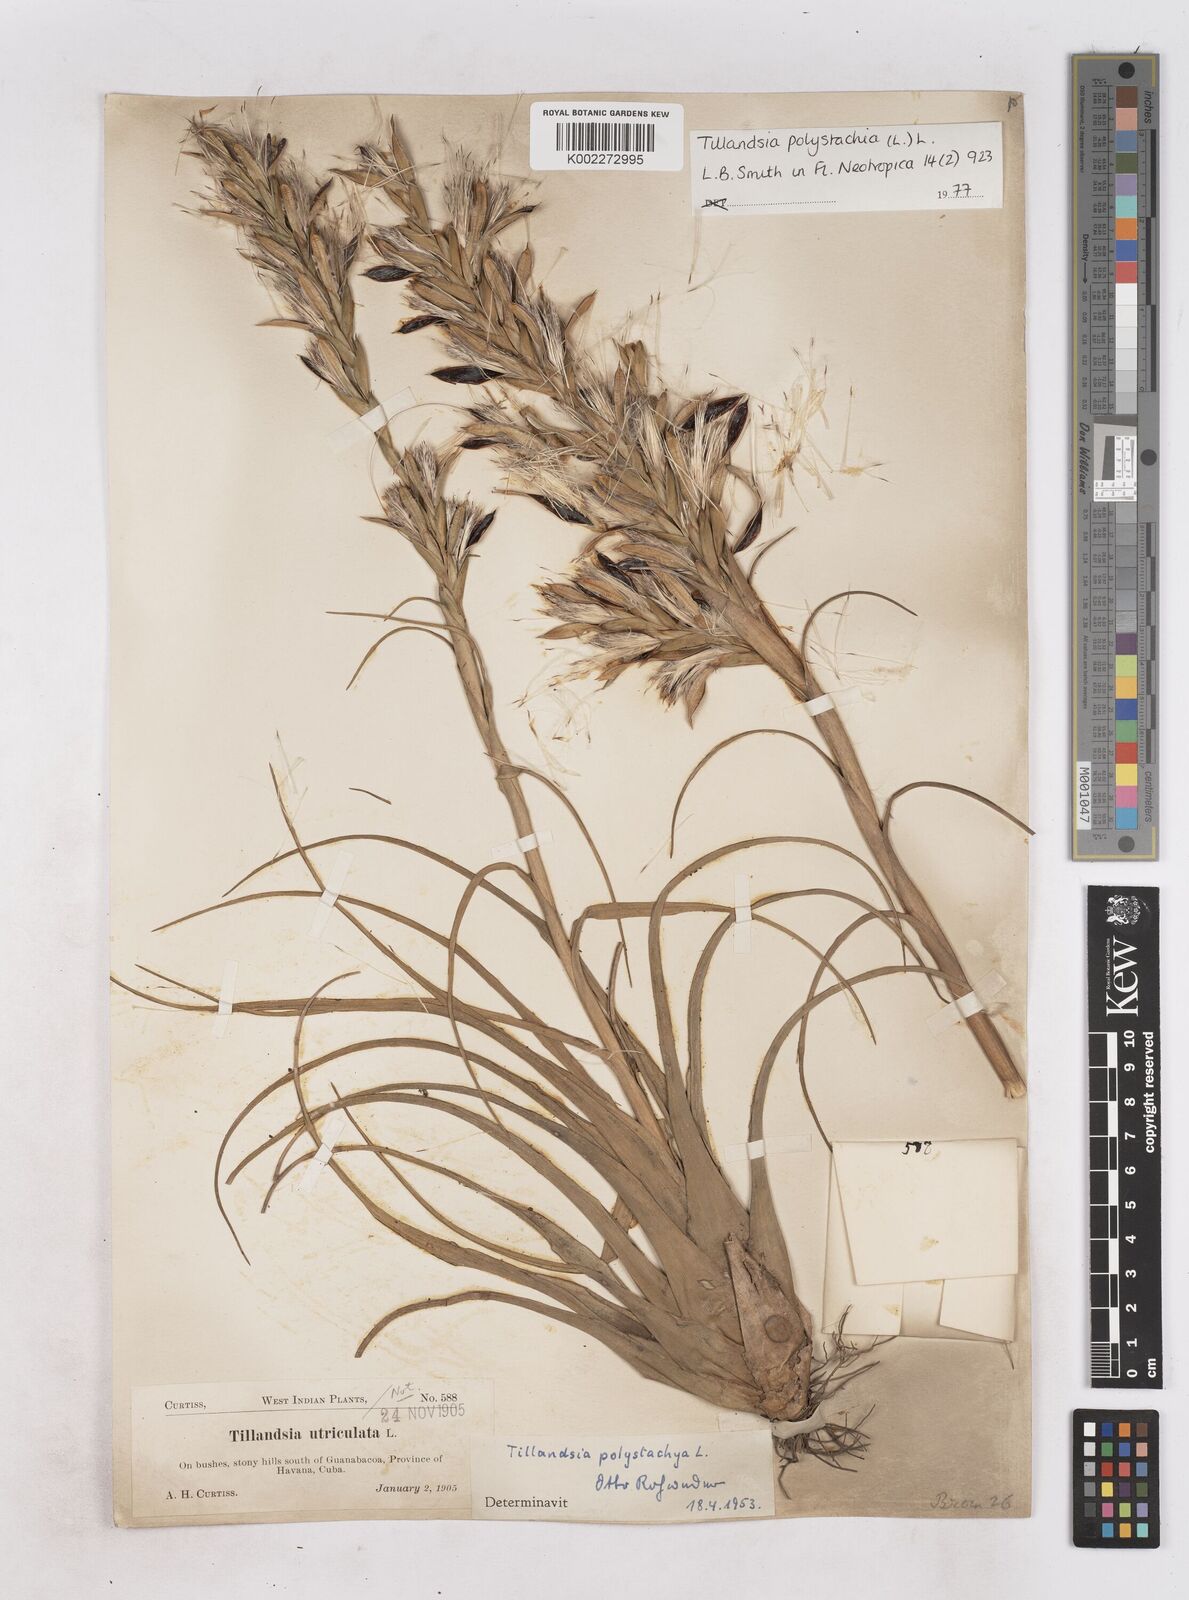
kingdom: Plantae
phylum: Tracheophyta
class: Liliopsida
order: Poales
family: Bromeliaceae
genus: Tillandsia
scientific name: Tillandsia polystachia
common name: Airplant
